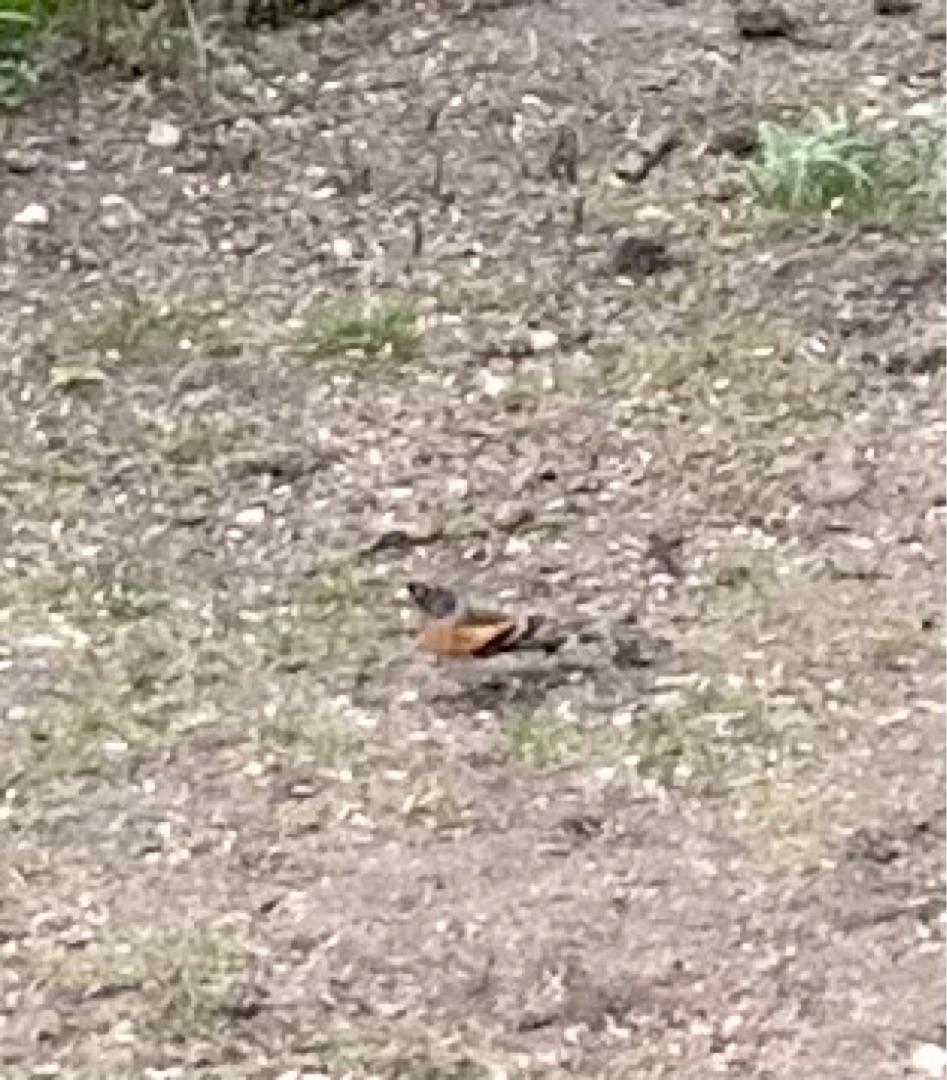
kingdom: Animalia
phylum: Chordata
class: Aves
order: Passeriformes
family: Fringillidae
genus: Fringilla
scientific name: Fringilla montifringilla
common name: Kvækerfinke
